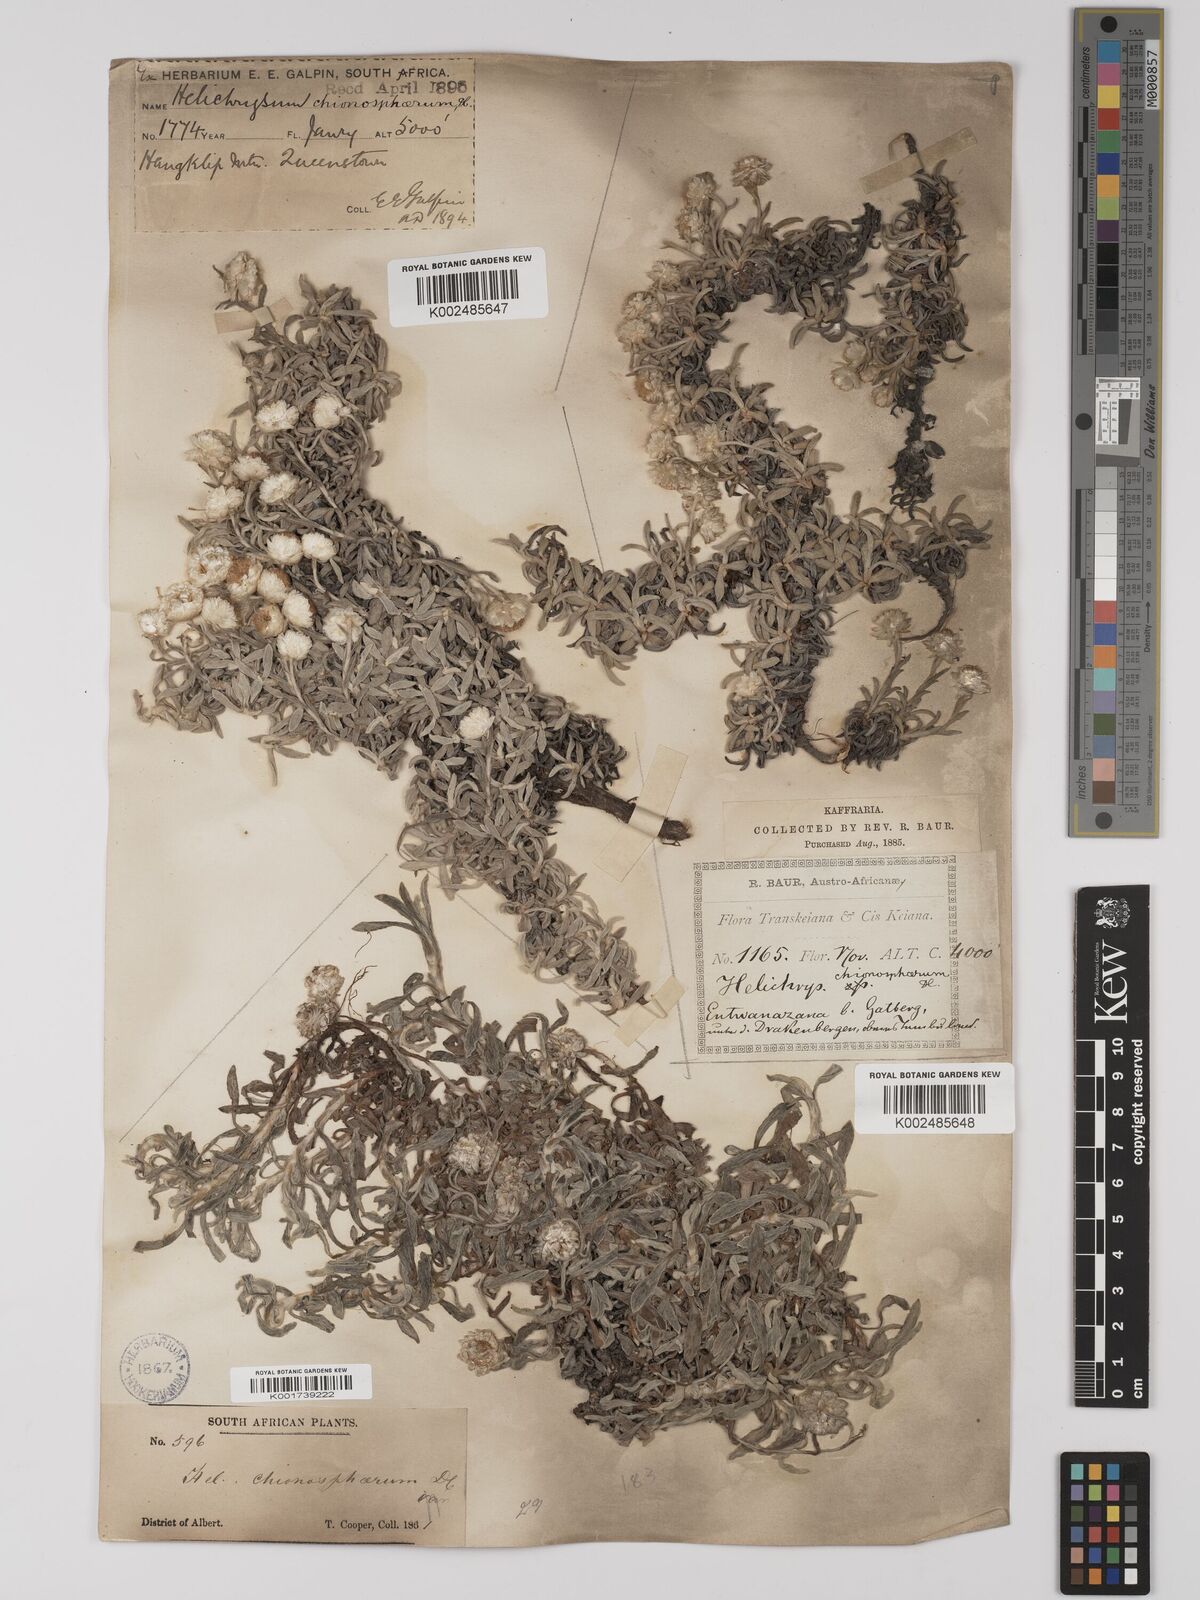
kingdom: Plantae
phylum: Tracheophyta
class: Magnoliopsida
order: Asterales
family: Asteraceae
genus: Helichrysum
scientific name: Helichrysum chionosphaerum
